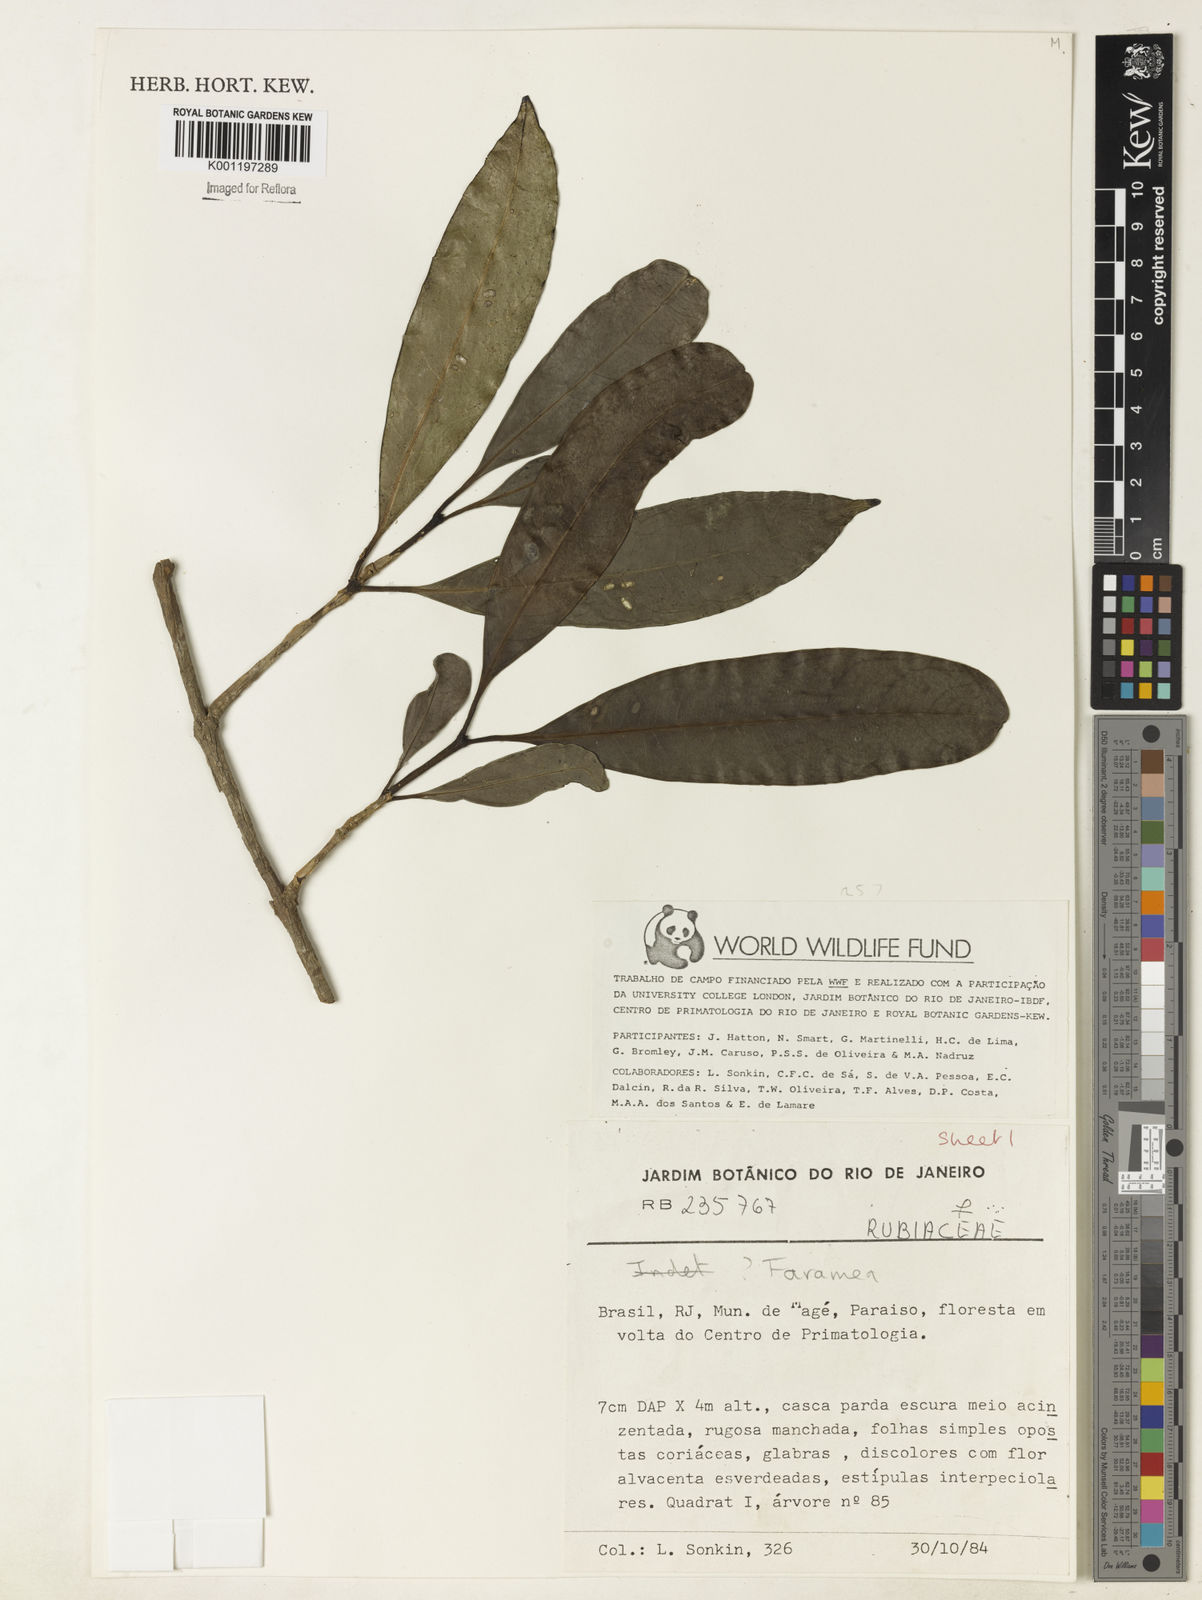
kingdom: Plantae
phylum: Tracheophyta
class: Magnoliopsida
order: Gentianales
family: Rubiaceae
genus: Faramea
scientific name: Faramea
